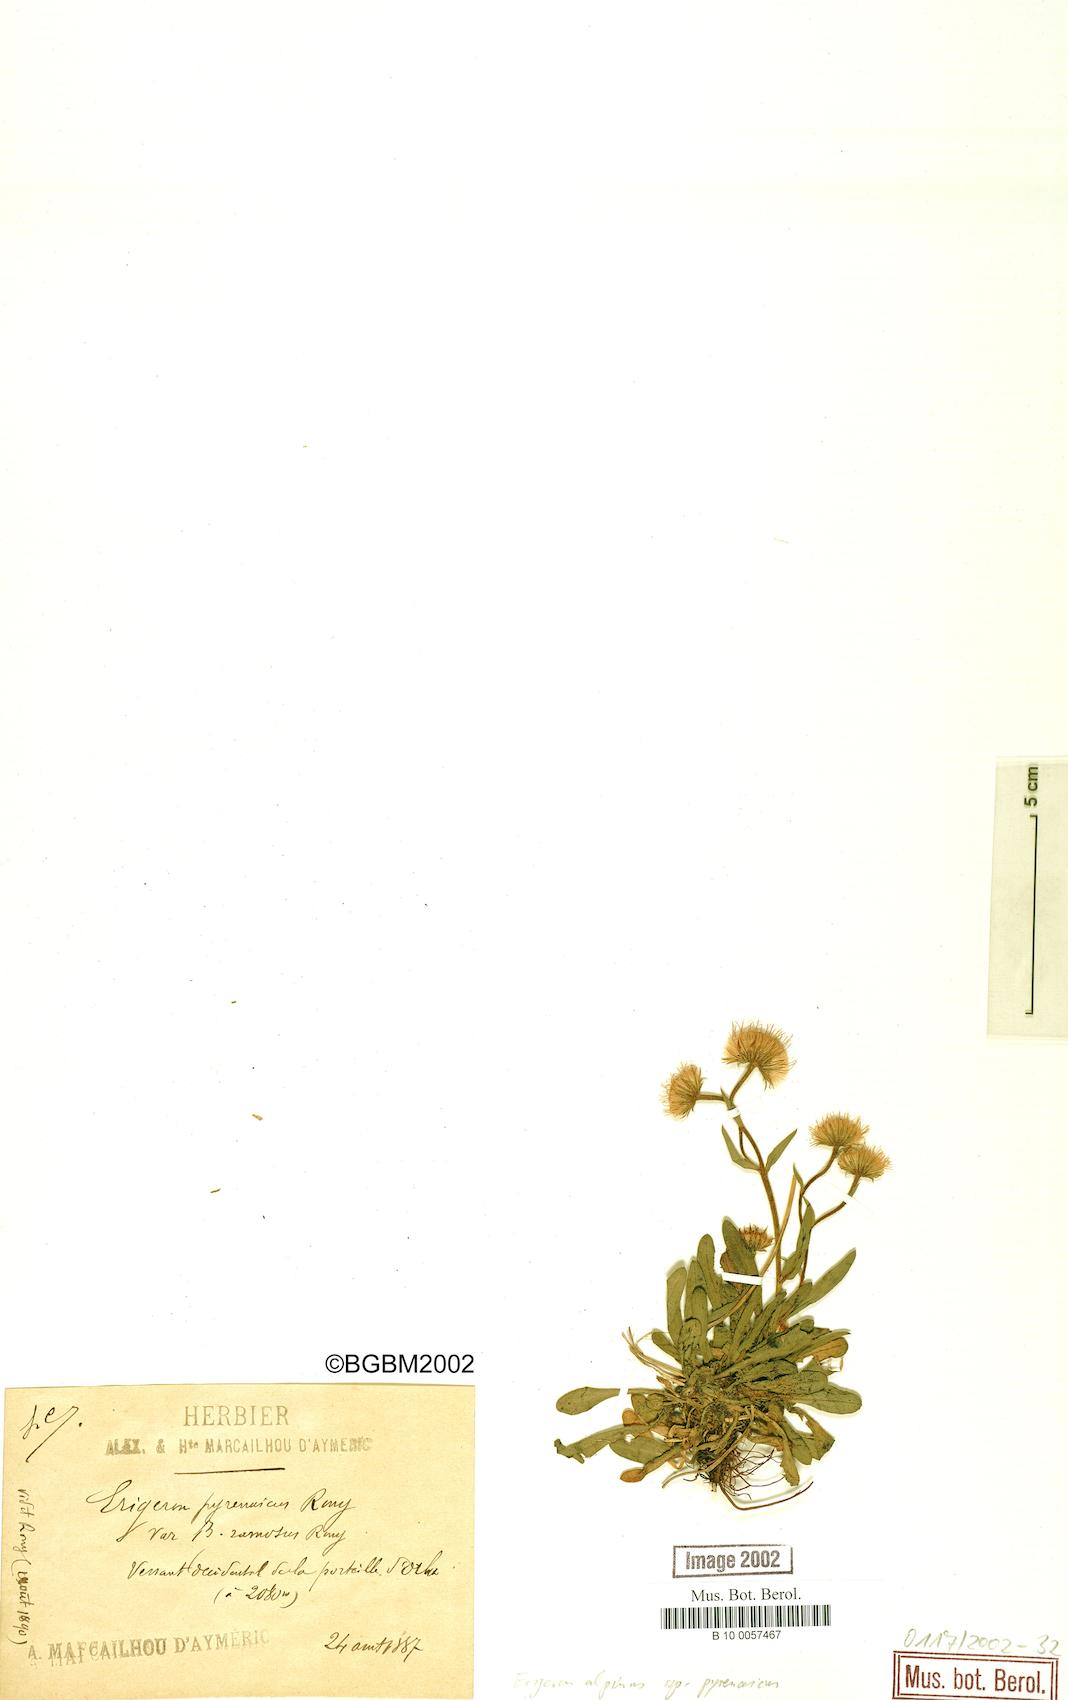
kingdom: Plantae
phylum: Tracheophyta
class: Magnoliopsida
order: Asterales
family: Asteraceae
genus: Erigeron
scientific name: Erigeron uniflorus
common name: Northern daisy
